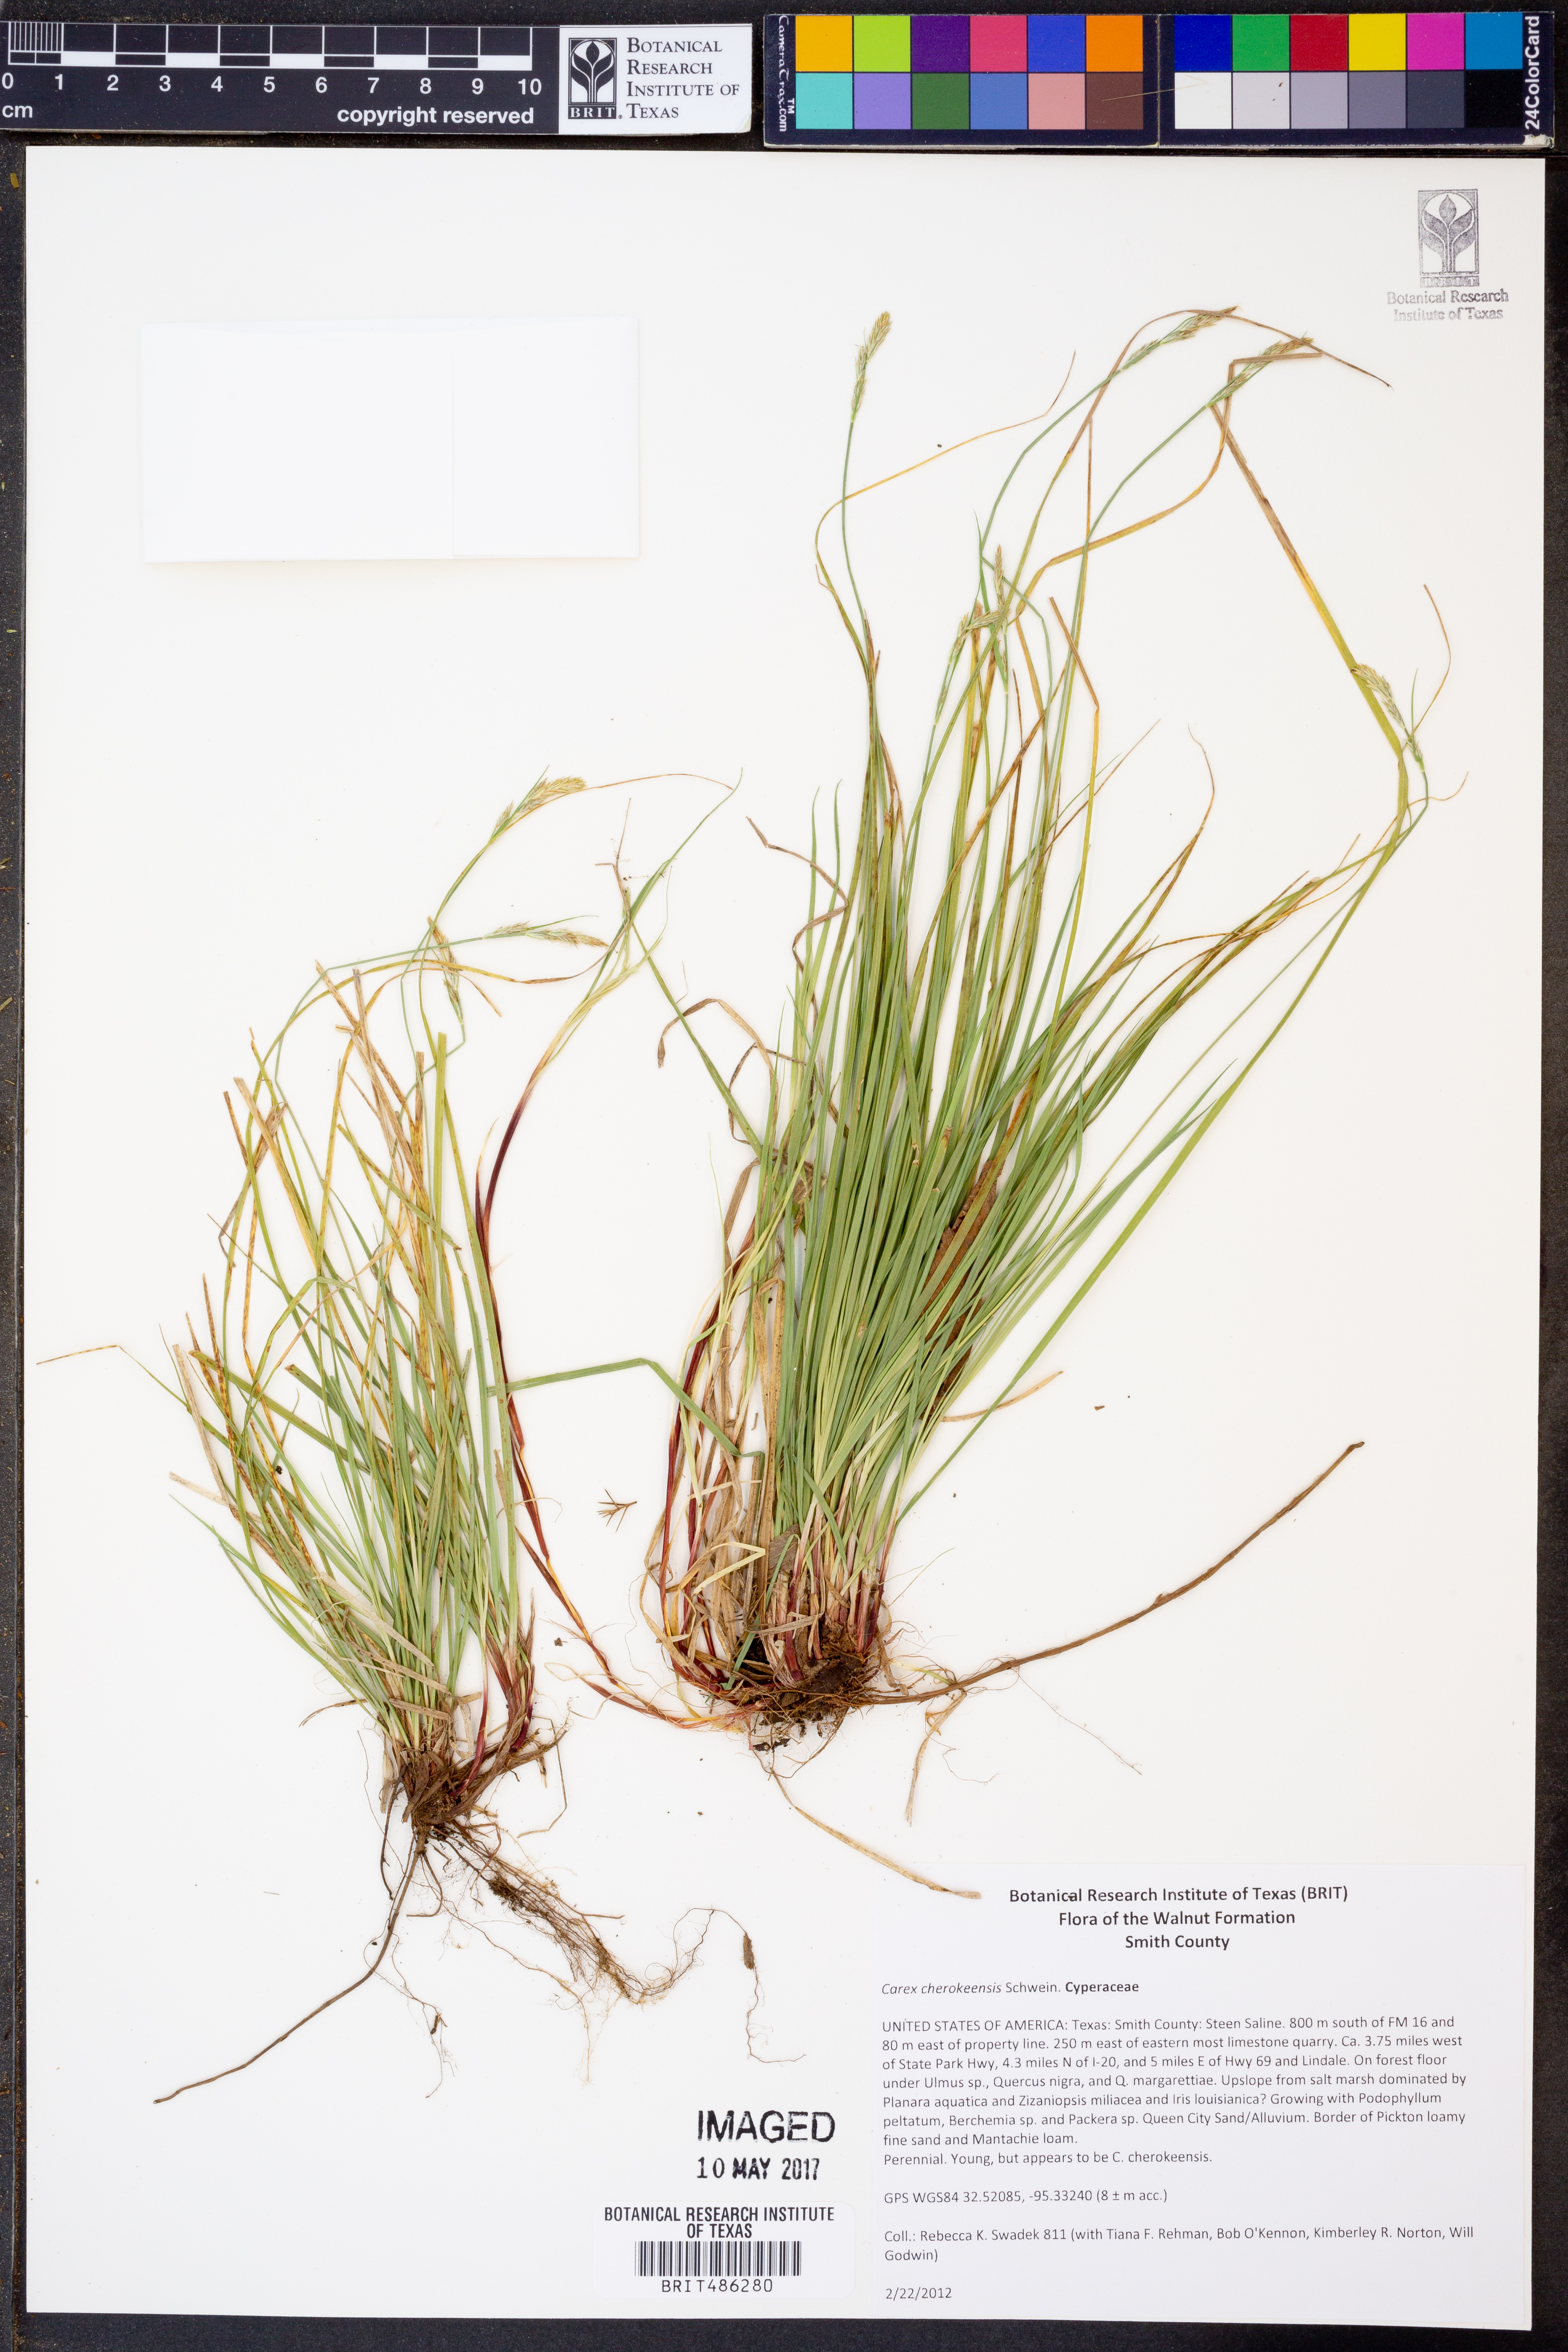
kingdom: Plantae
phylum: Tracheophyta
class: Liliopsida
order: Poales
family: Cyperaceae
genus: Carex
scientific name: Carex cherokeensis
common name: Cherokee sedge
